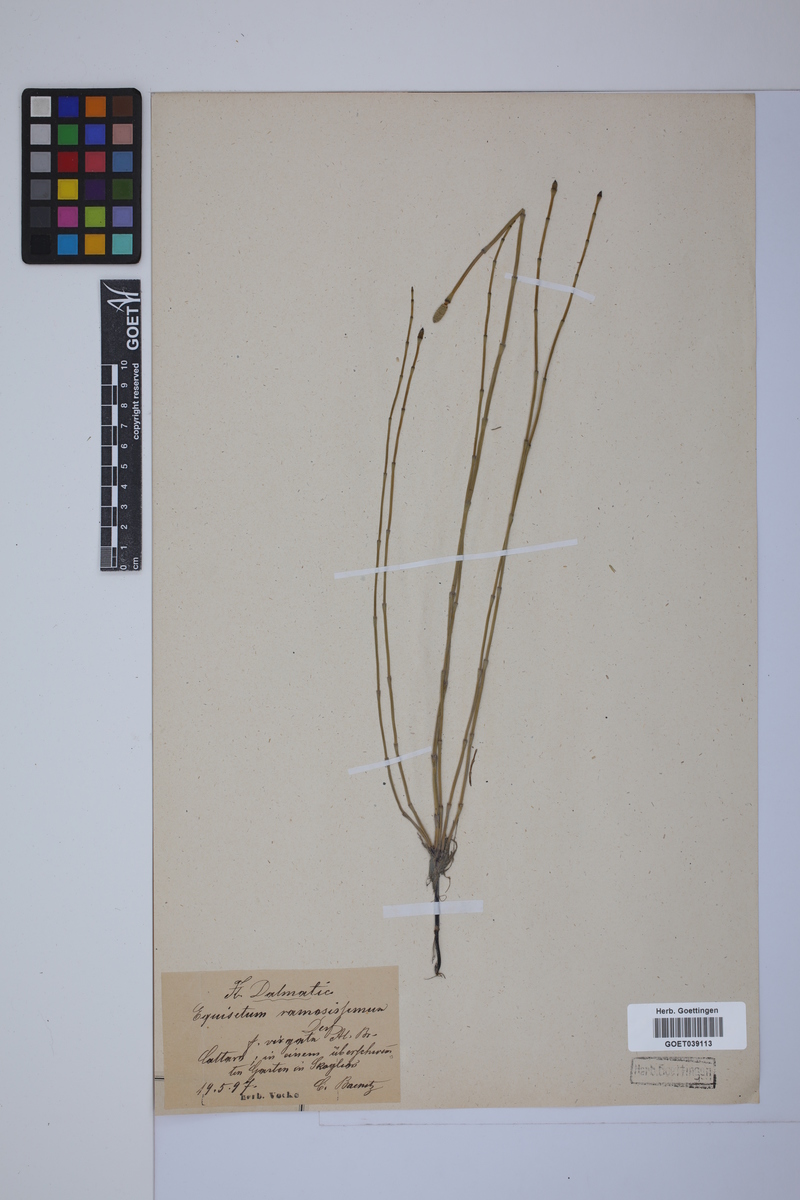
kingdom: Plantae
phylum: Tracheophyta
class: Polypodiopsida
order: Equisetales
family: Equisetaceae
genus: Equisetum
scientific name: Equisetum giganteum
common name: Giant horsetail
